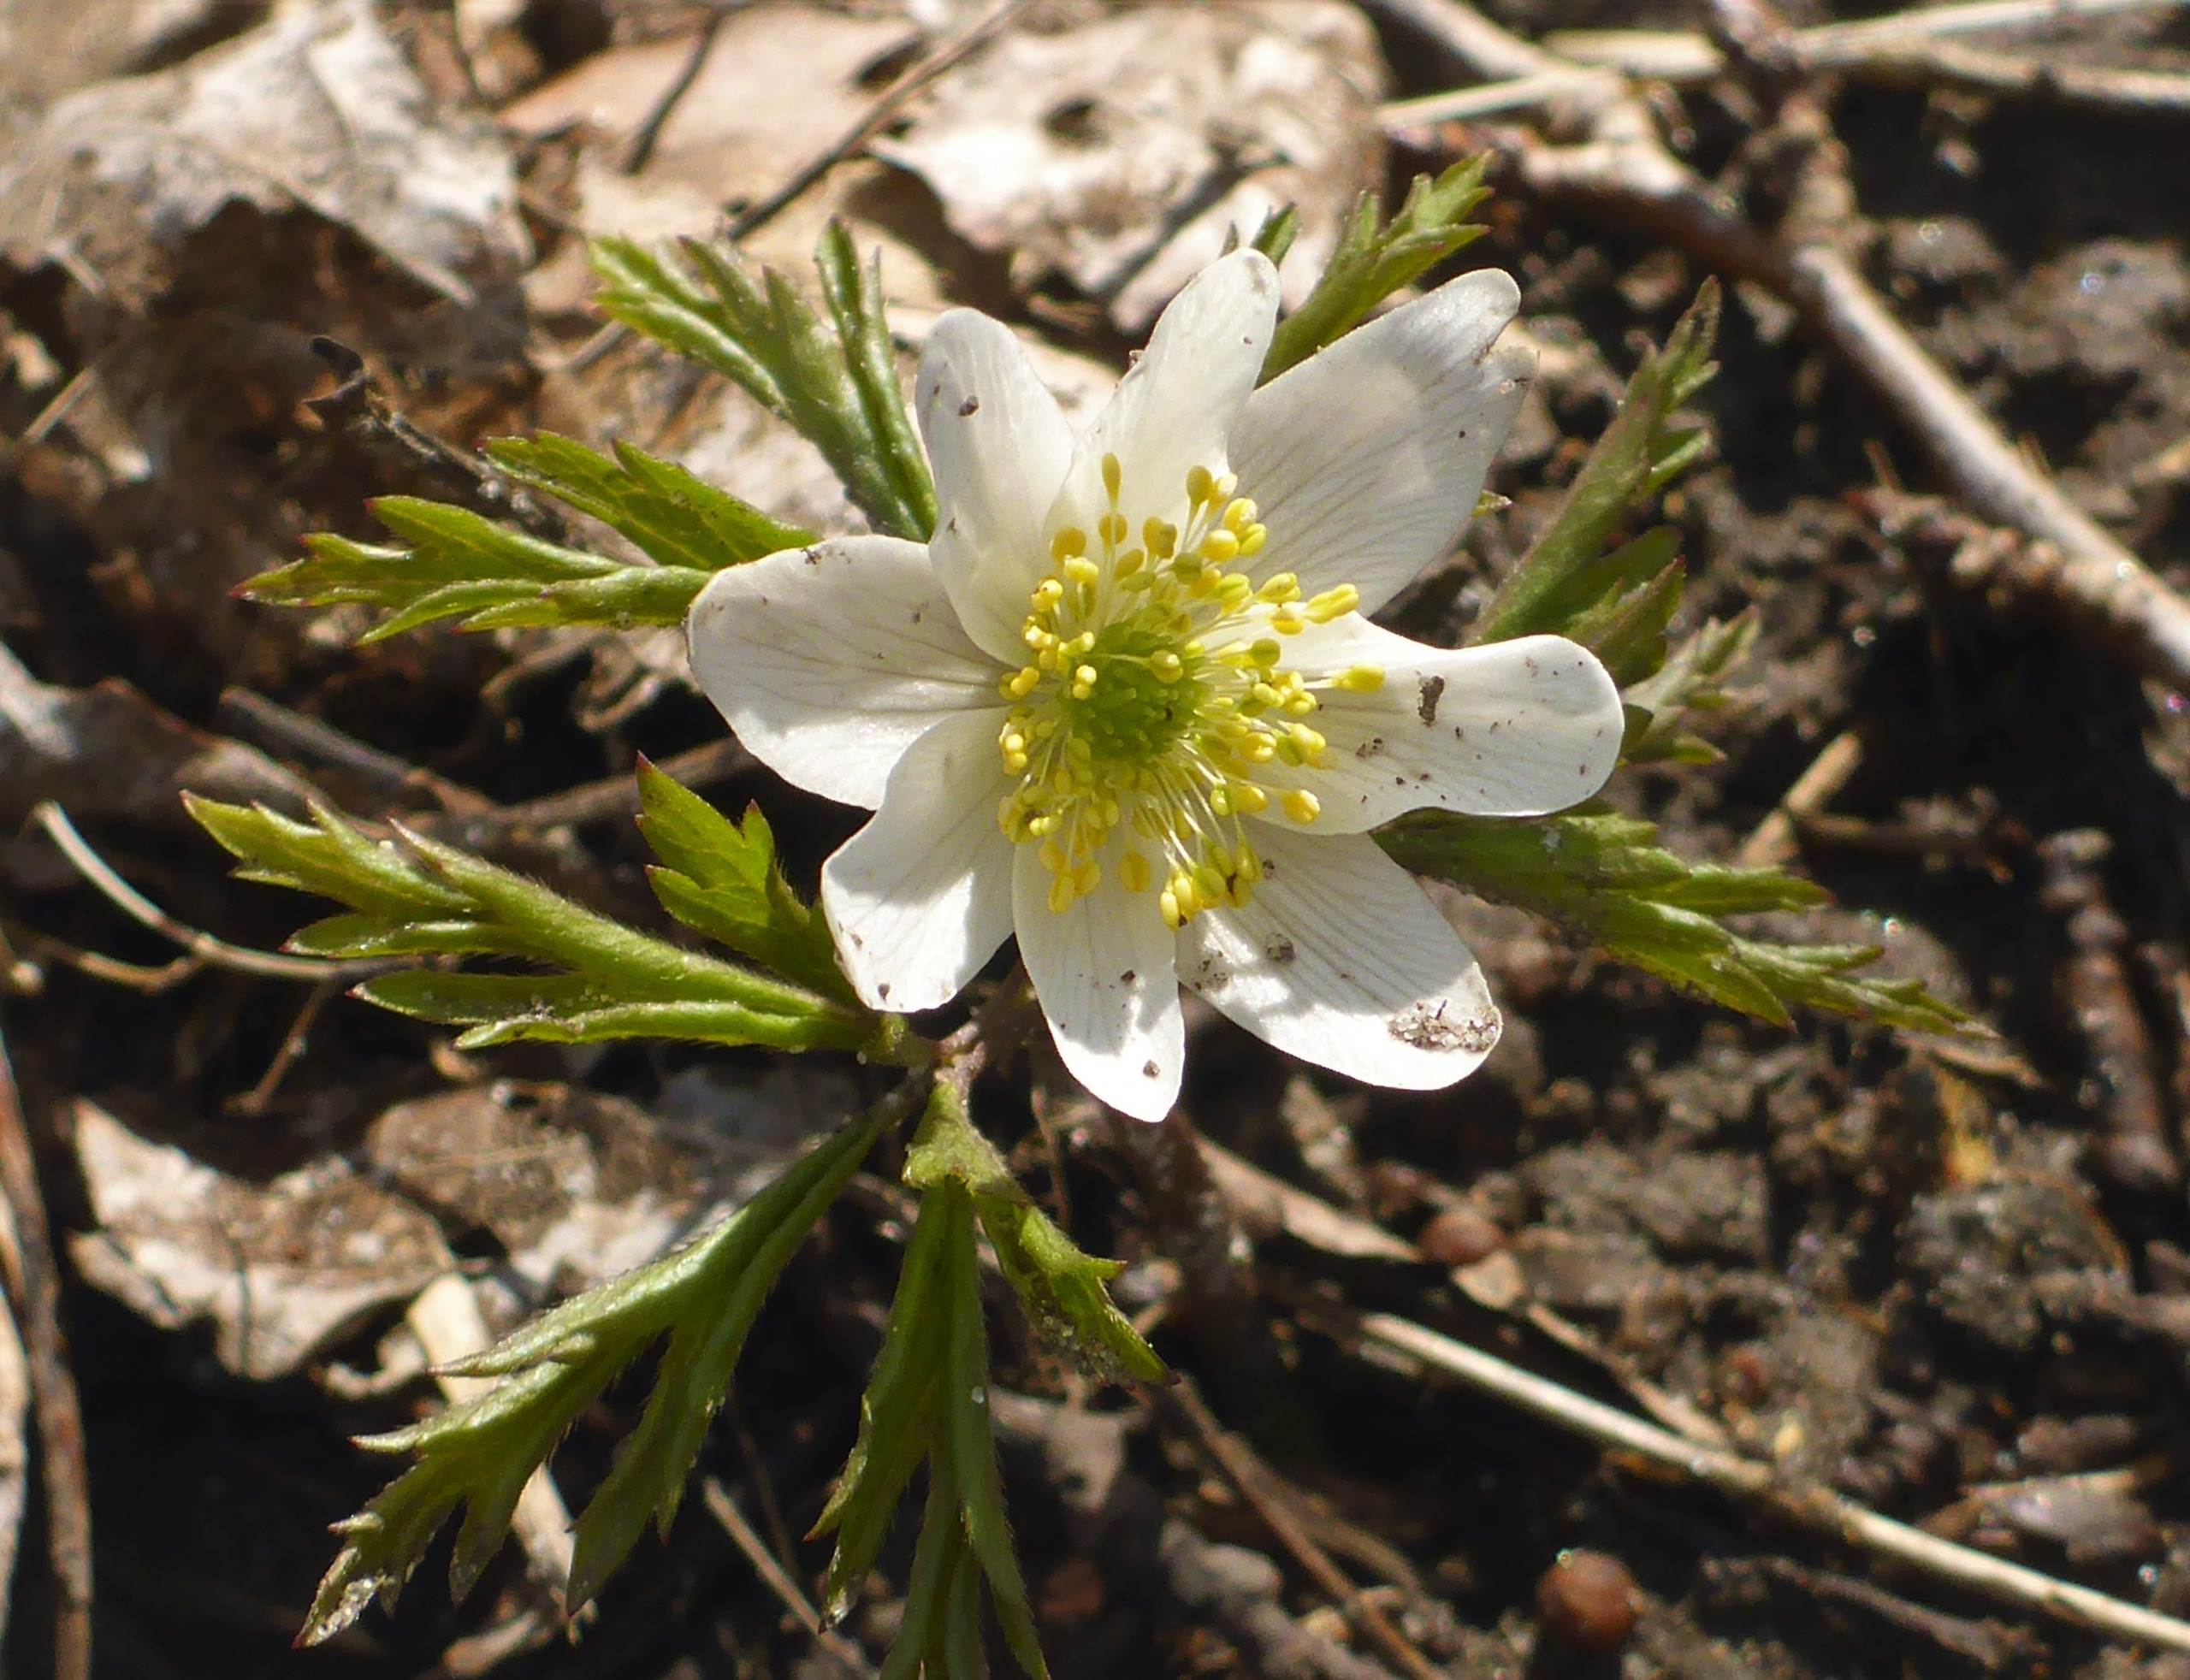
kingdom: Plantae
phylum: Tracheophyta
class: Magnoliopsida
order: Ranunculales
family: Ranunculaceae
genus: Anemone
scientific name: Anemone nemorosa
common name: Hvid anemone
